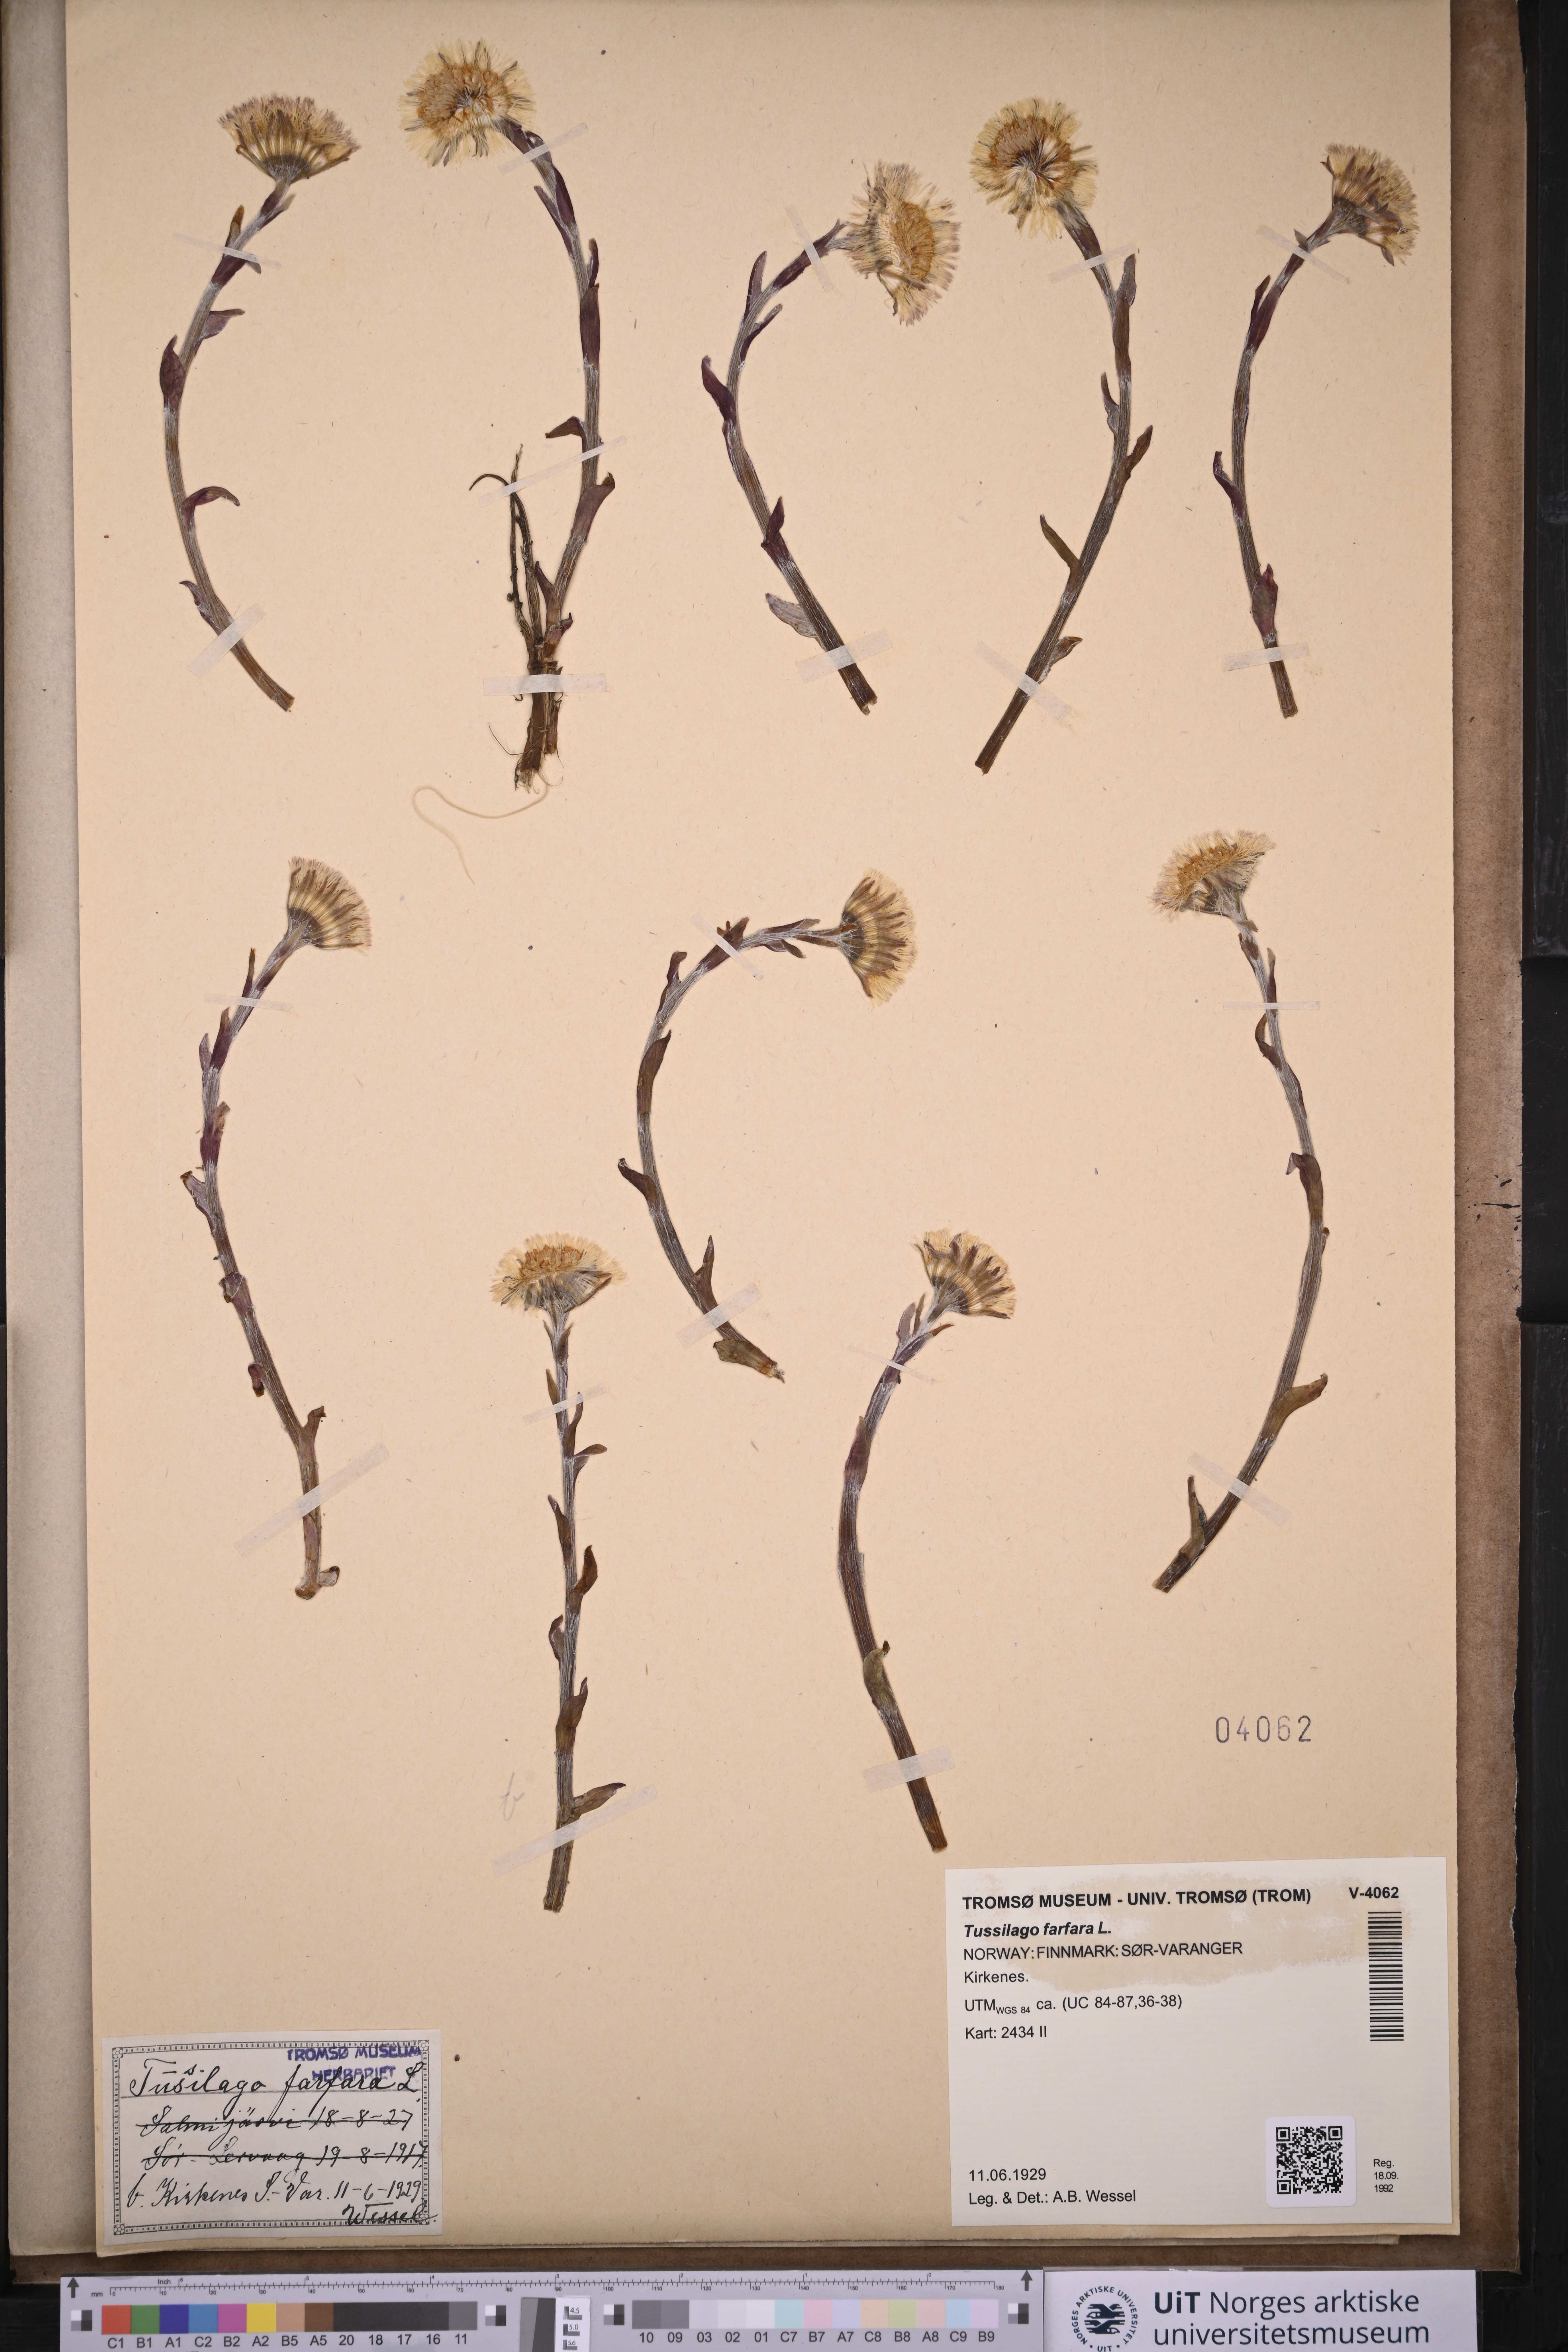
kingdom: Plantae
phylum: Tracheophyta
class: Magnoliopsida
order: Asterales
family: Asteraceae
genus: Tussilago
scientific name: Tussilago farfara
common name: Coltsfoot
